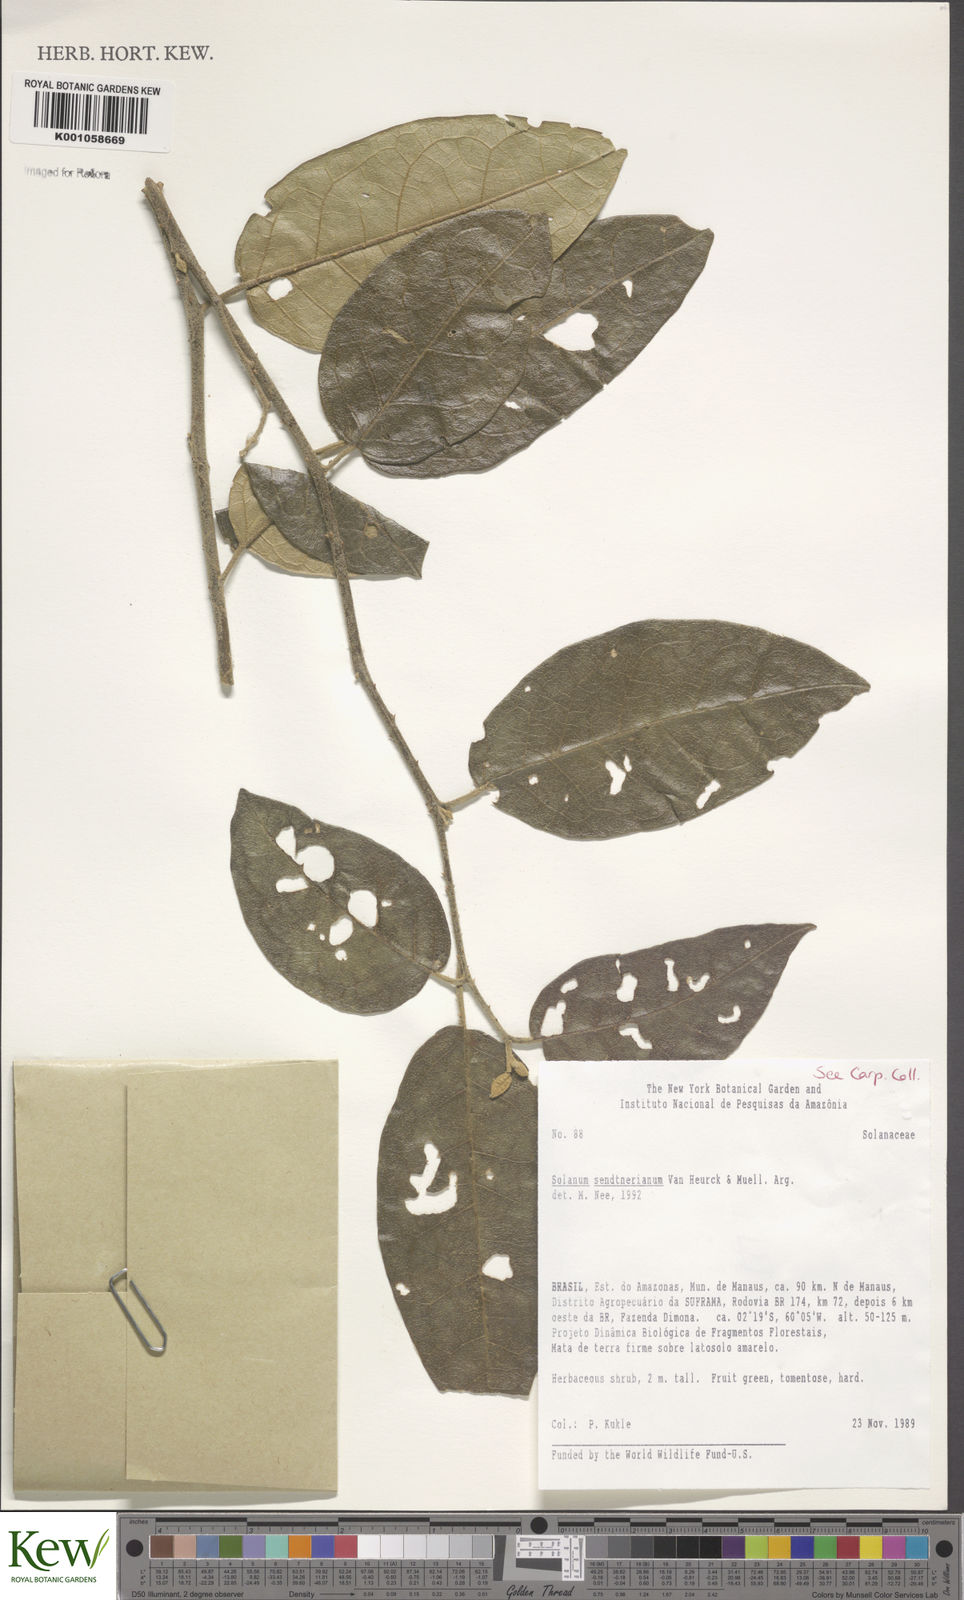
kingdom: Plantae
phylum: Tracheophyta
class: Magnoliopsida
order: Solanales
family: Solanaceae
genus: Solanum
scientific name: Solanum
